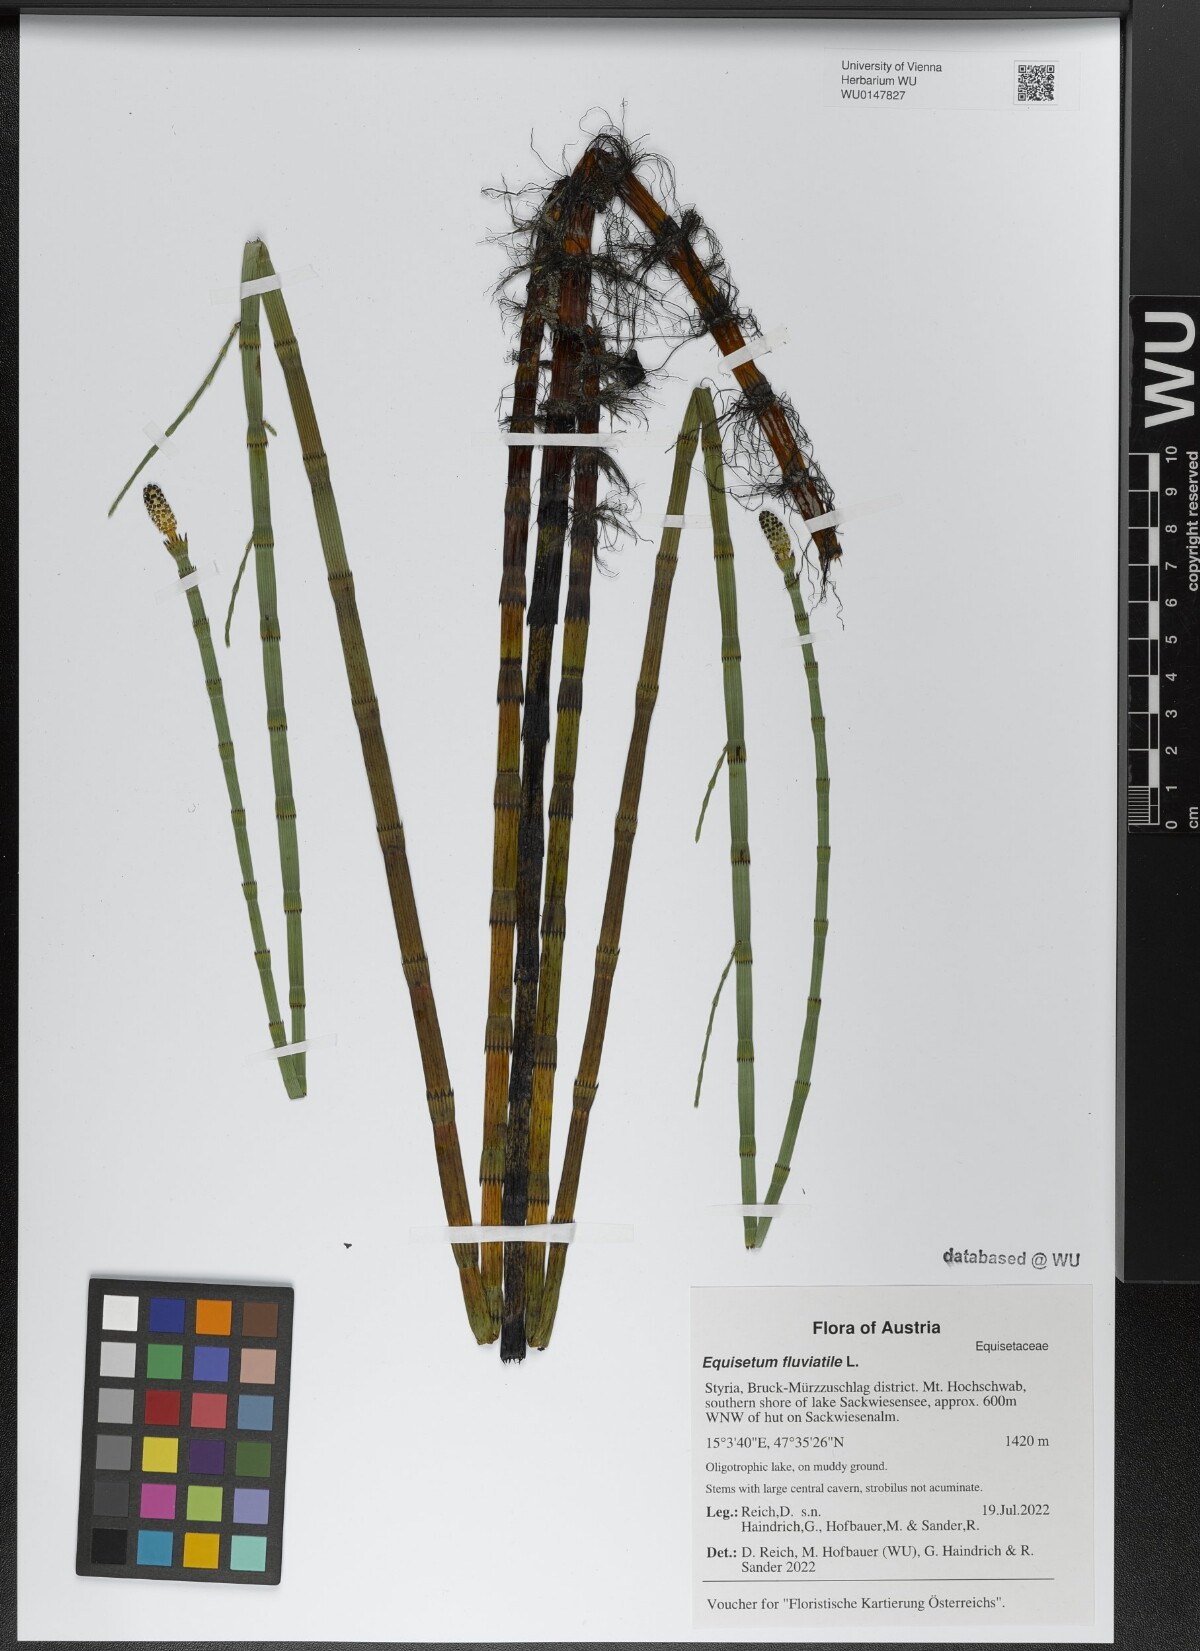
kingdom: Plantae
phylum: Tracheophyta
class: Polypodiopsida
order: Equisetales
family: Equisetaceae
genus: Equisetum
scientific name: Equisetum fluviatile
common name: Water horsetail
